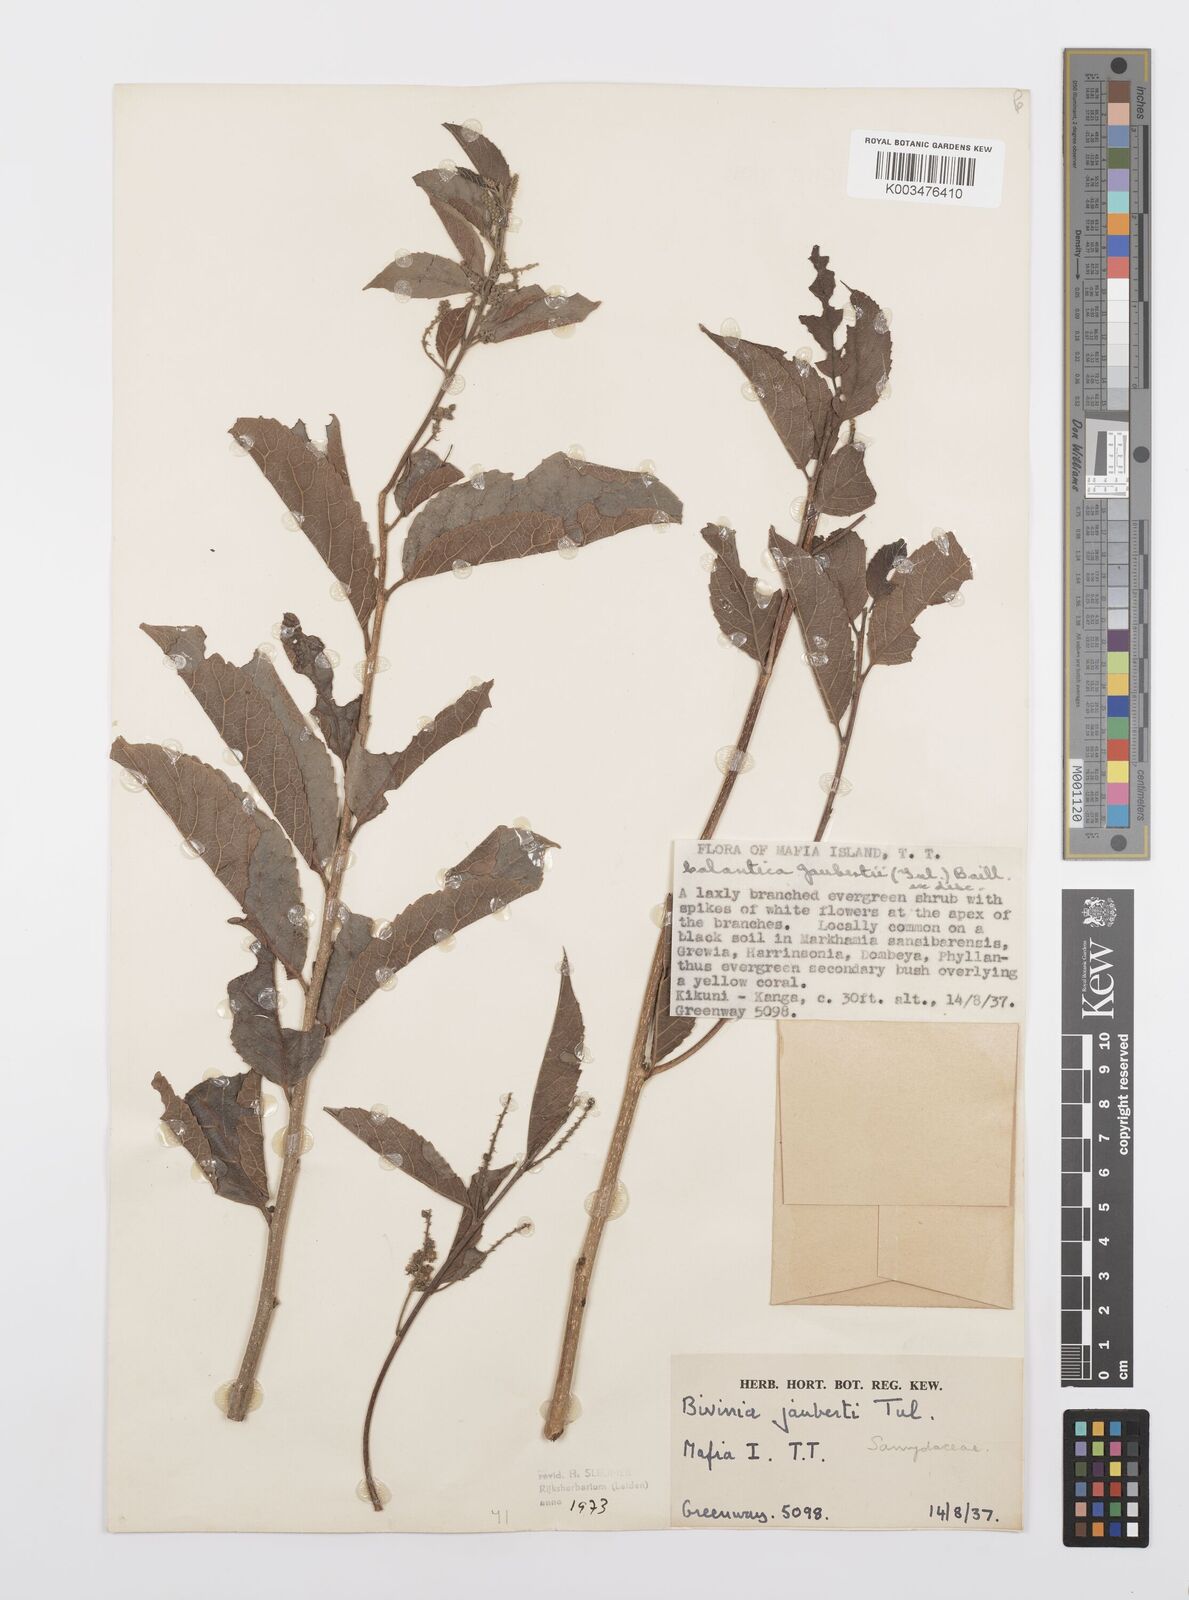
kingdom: Plantae
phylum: Tracheophyta
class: Magnoliopsida
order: Malpighiales
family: Salicaceae
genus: Bivinia
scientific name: Bivinia jalbertii
